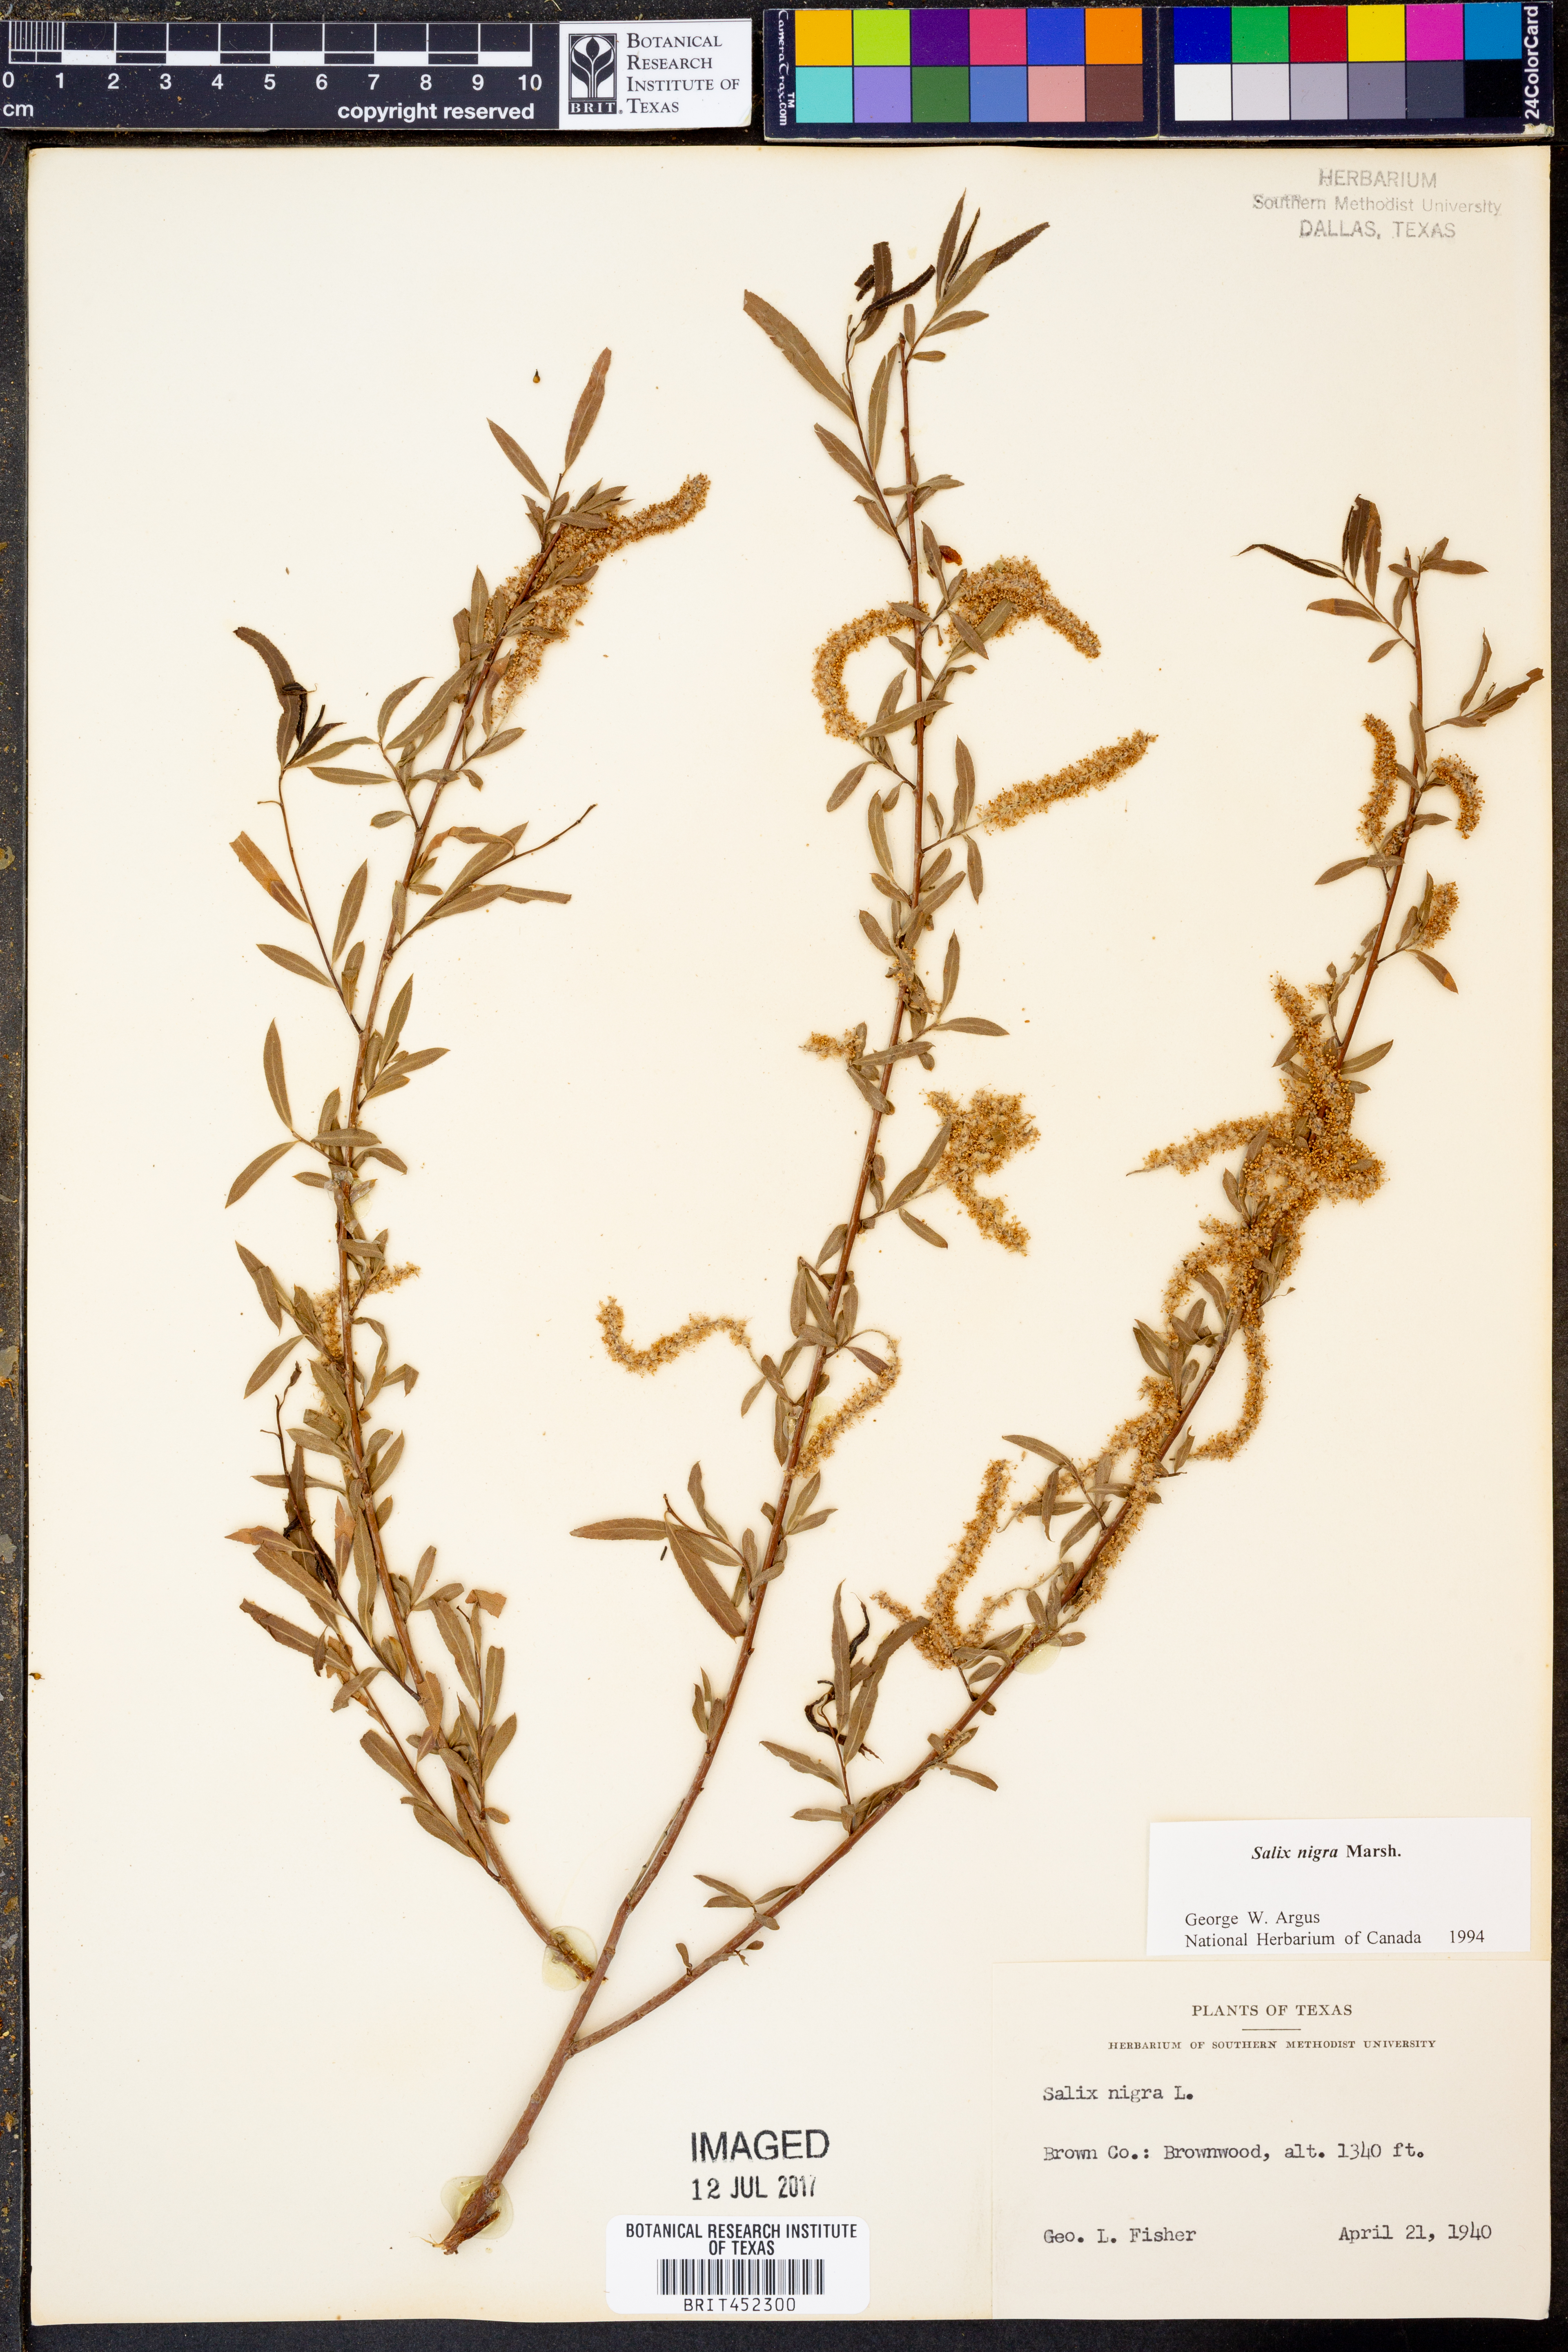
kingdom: Plantae
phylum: Tracheophyta
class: Magnoliopsida
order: Malpighiales
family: Salicaceae
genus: Salix
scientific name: Salix nigra
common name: Black willow
